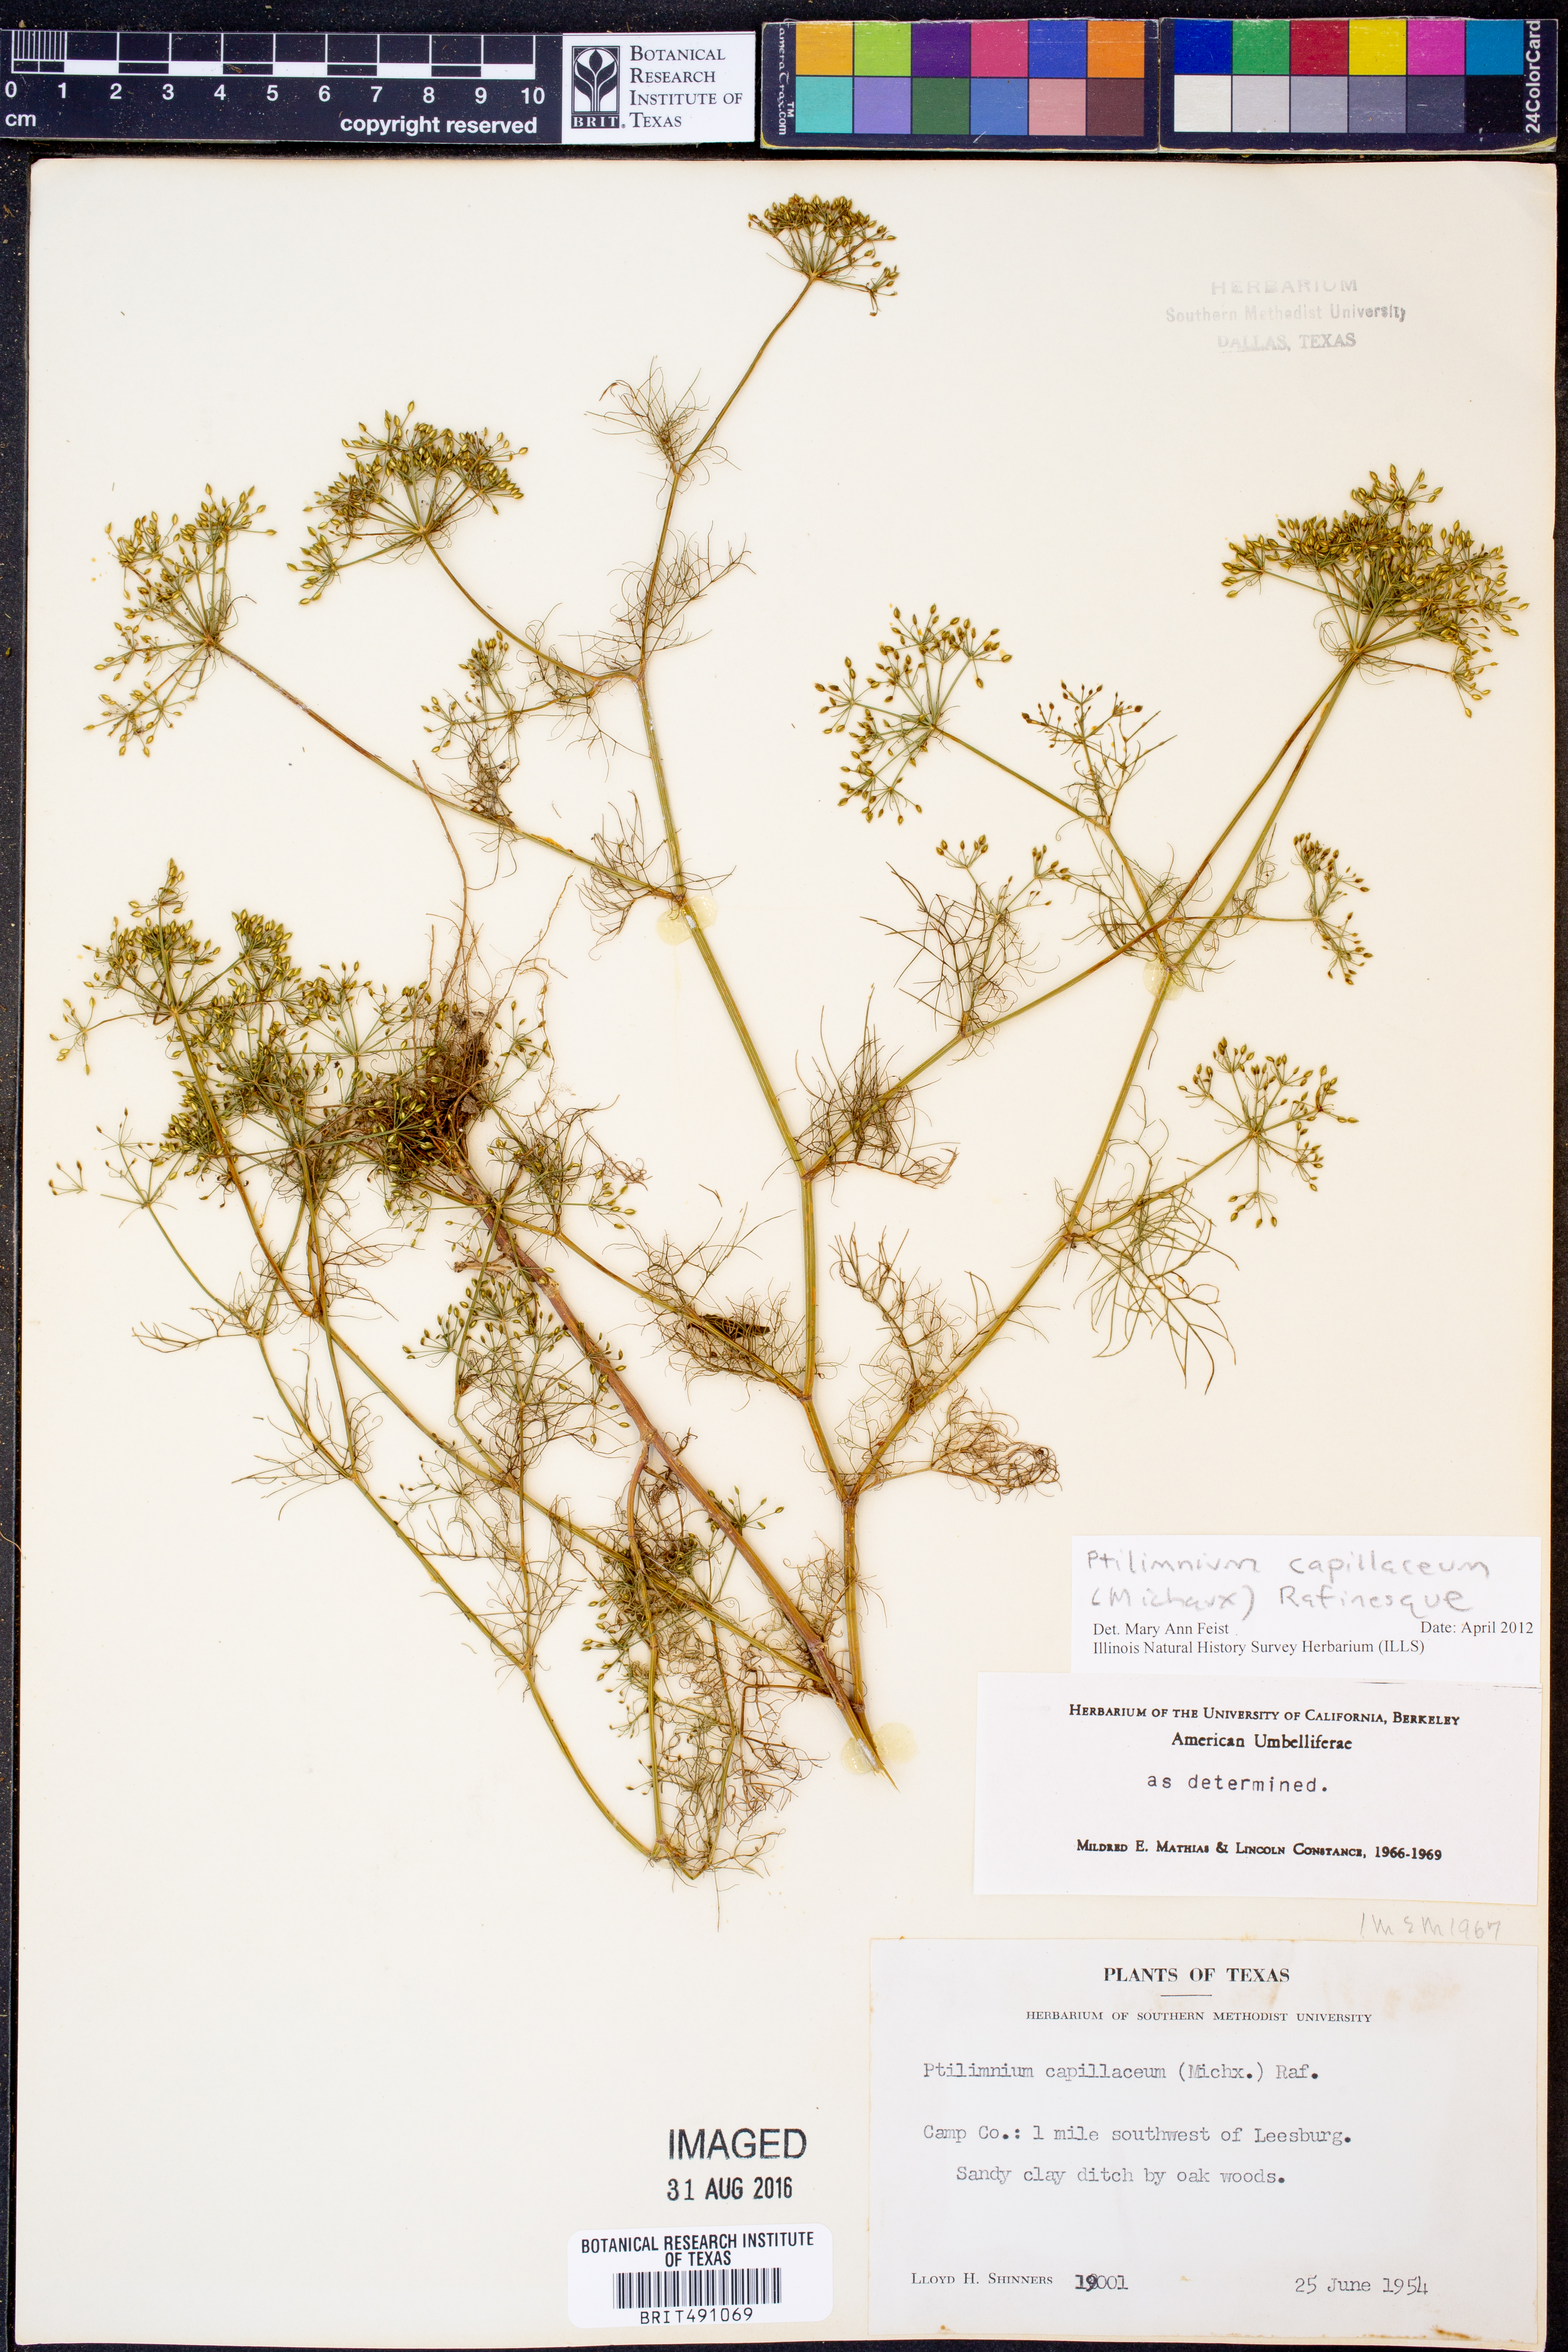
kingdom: Plantae
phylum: Tracheophyta
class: Magnoliopsida
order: Apiales
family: Apiaceae
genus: Ptilimnium
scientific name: Ptilimnium capillaceum
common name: Herbwilliam
